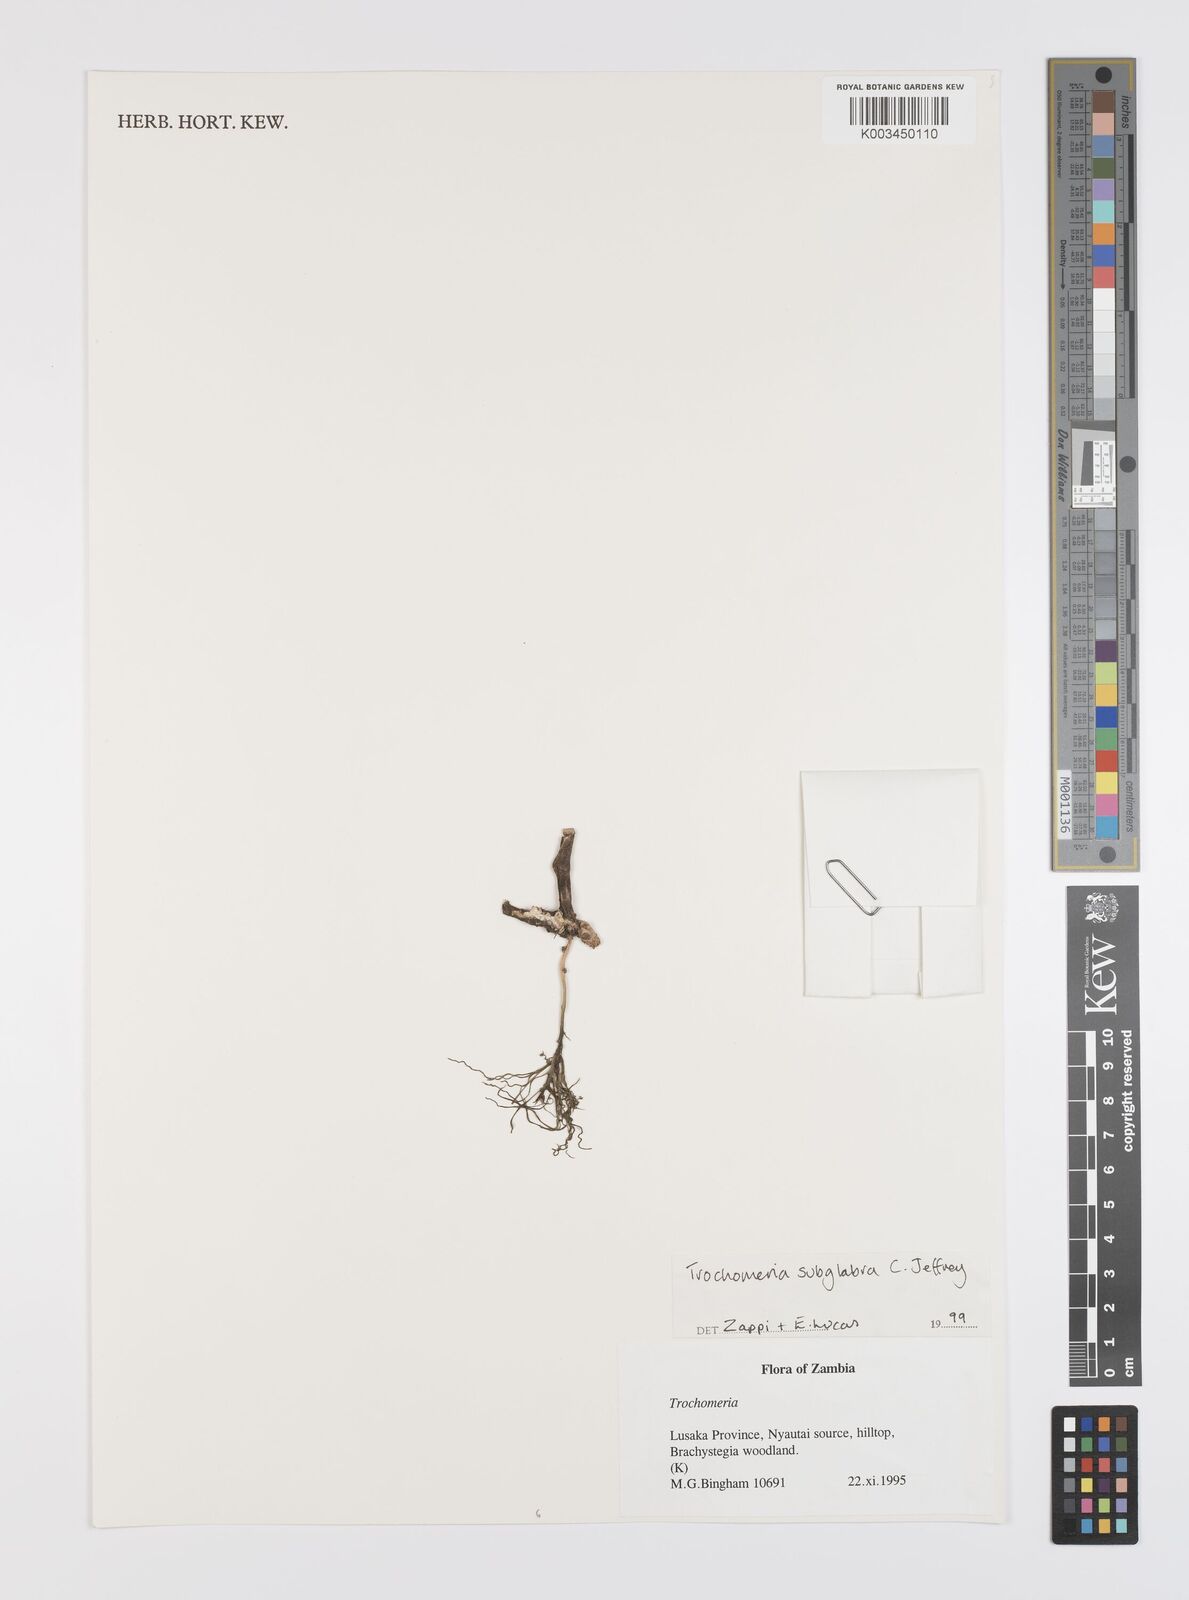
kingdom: Plantae
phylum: Tracheophyta
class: Magnoliopsida
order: Cucurbitales
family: Cucurbitaceae
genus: Trochomeria
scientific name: Trochomeria subglabra
